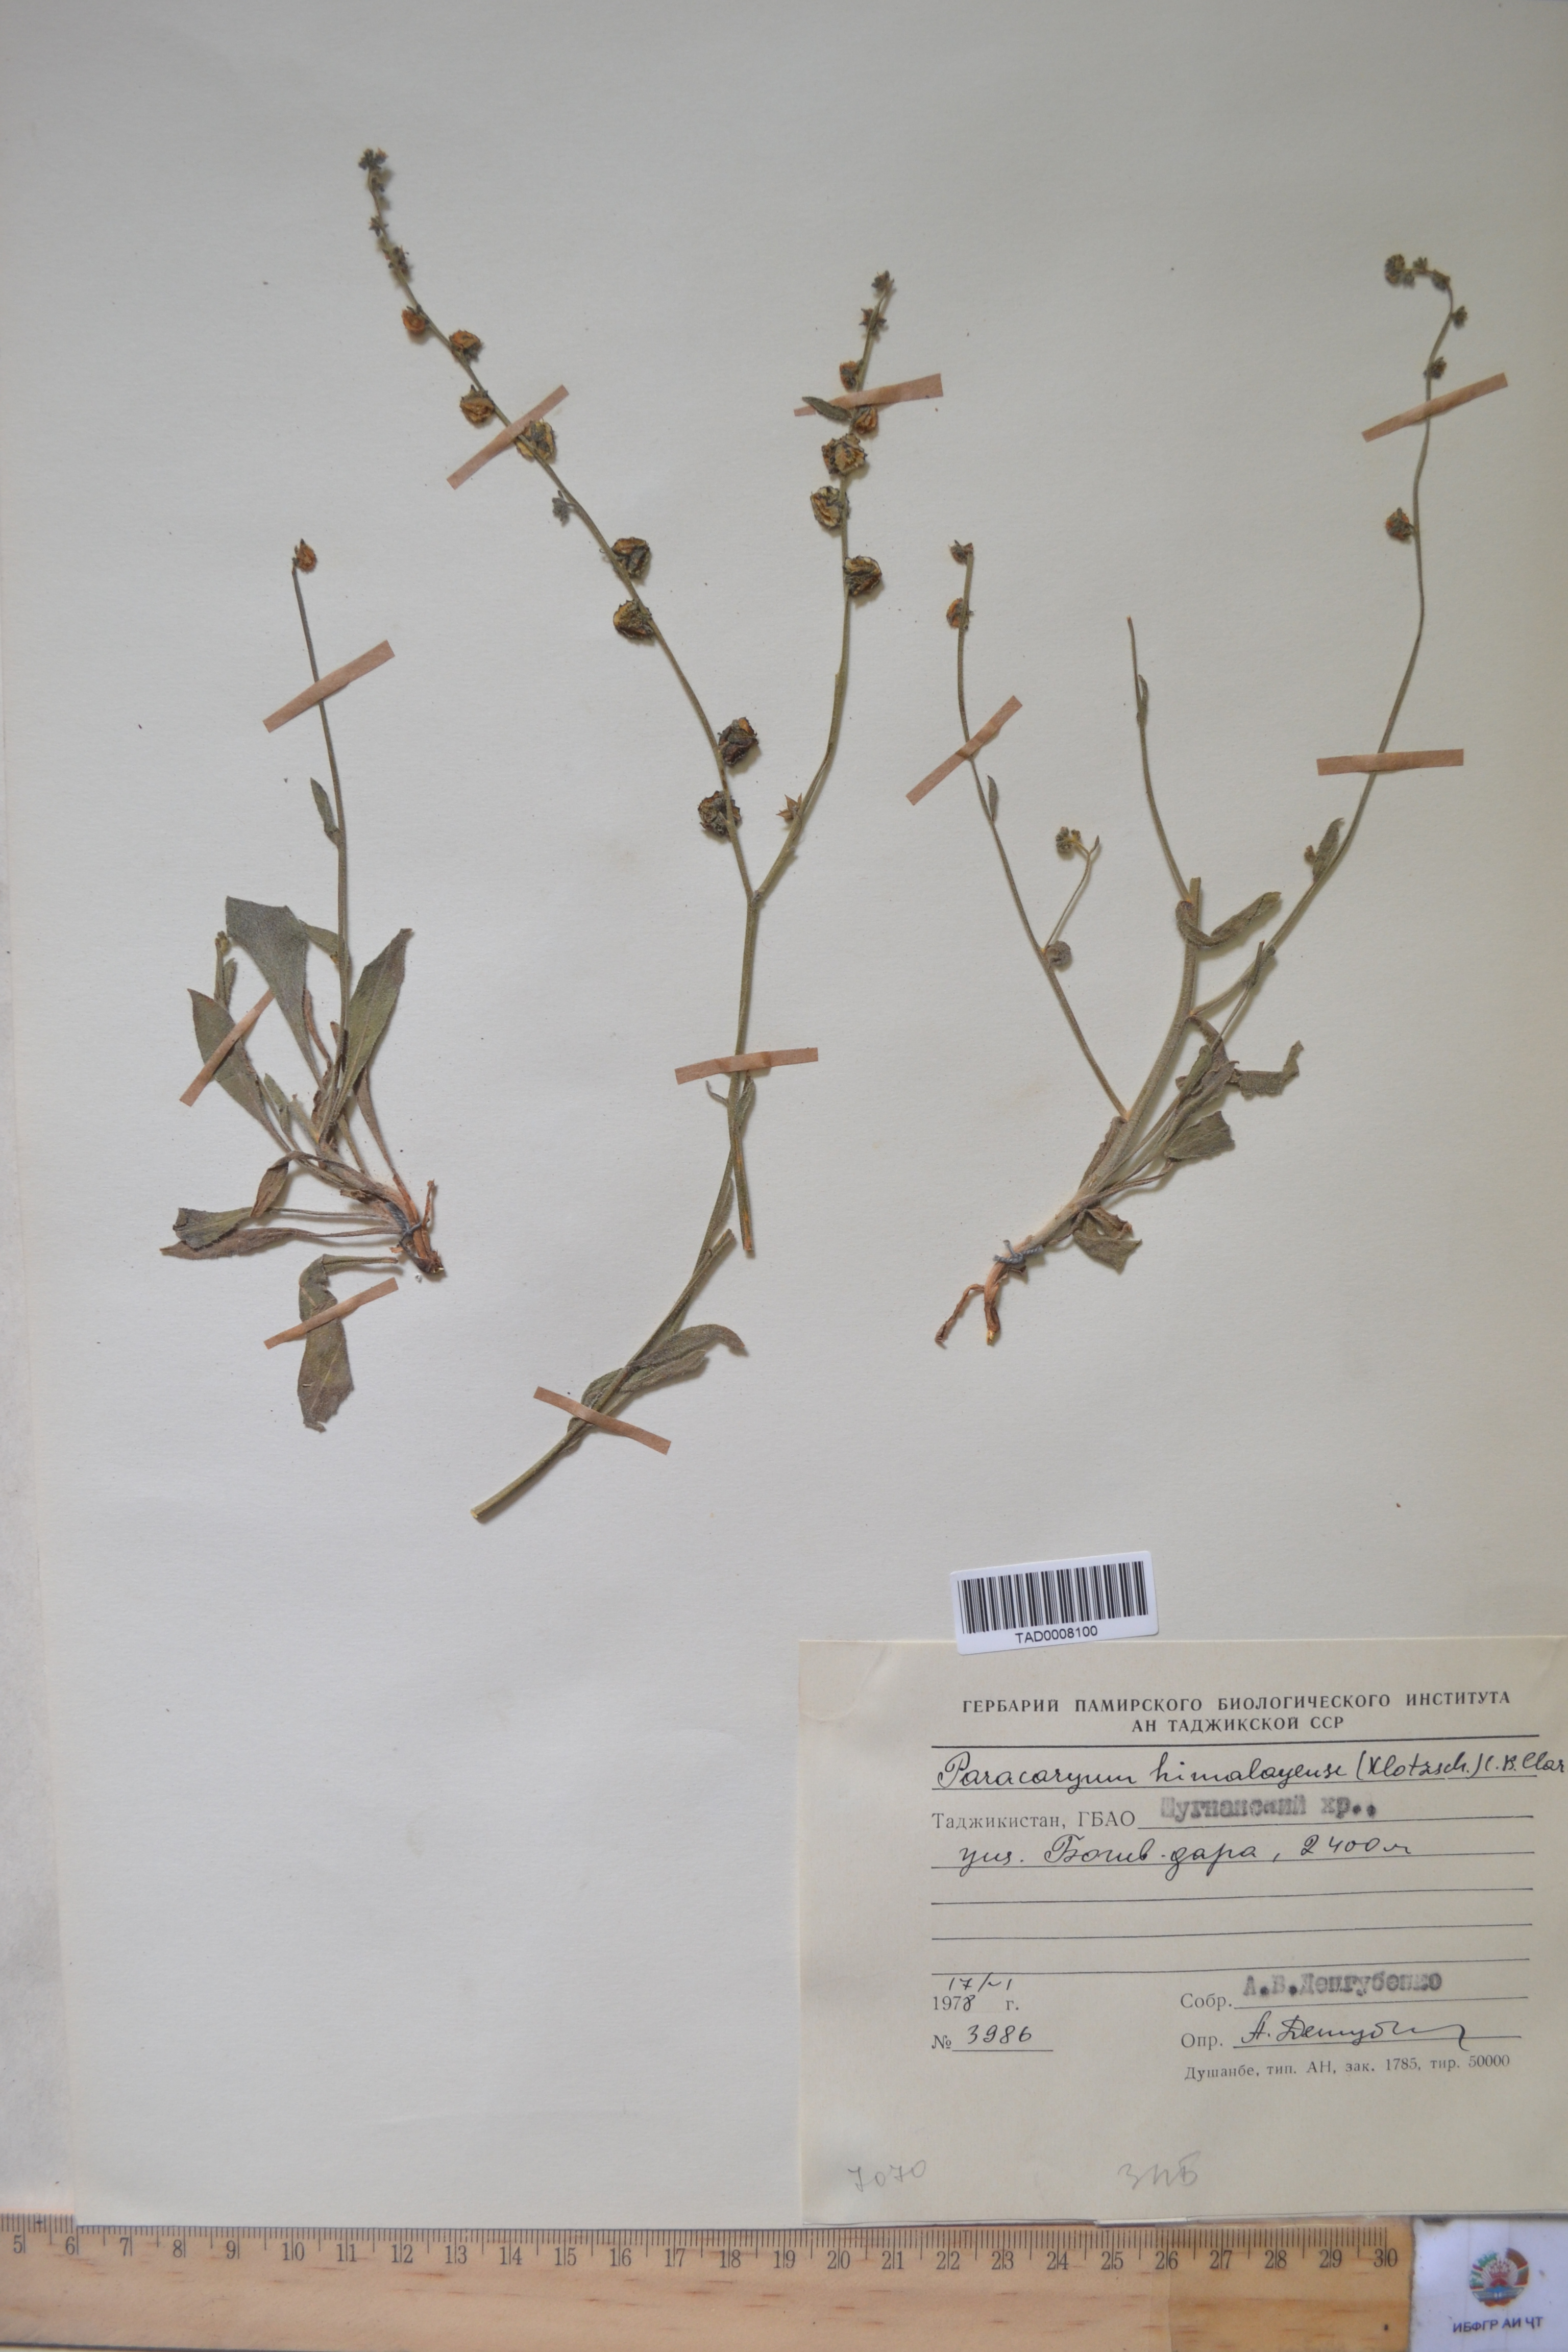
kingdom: Plantae
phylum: Tracheophyta
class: Magnoliopsida
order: Boraginales
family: Boraginaceae
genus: Paracaryum
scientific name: Paracaryum himalayense
